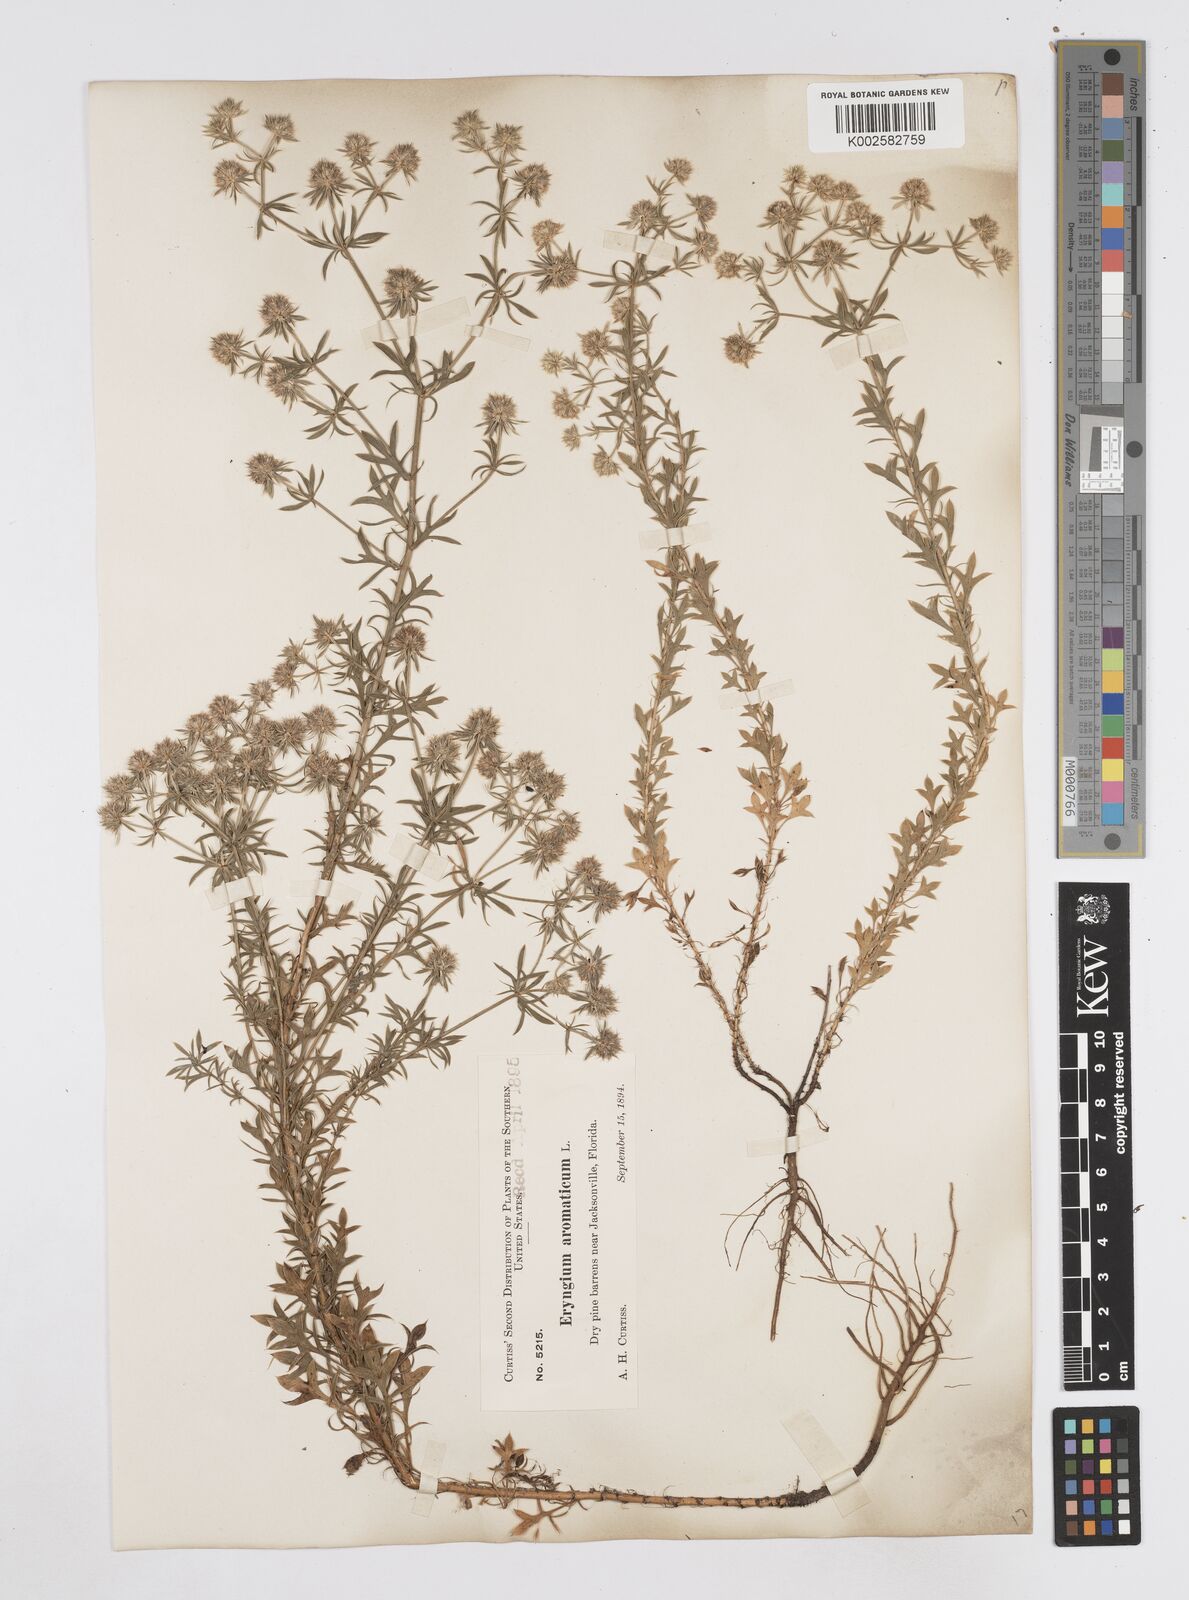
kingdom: Plantae
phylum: Tracheophyta
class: Magnoliopsida
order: Apiales
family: Apiaceae
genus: Eryngium
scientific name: Eryngium aromaticum
